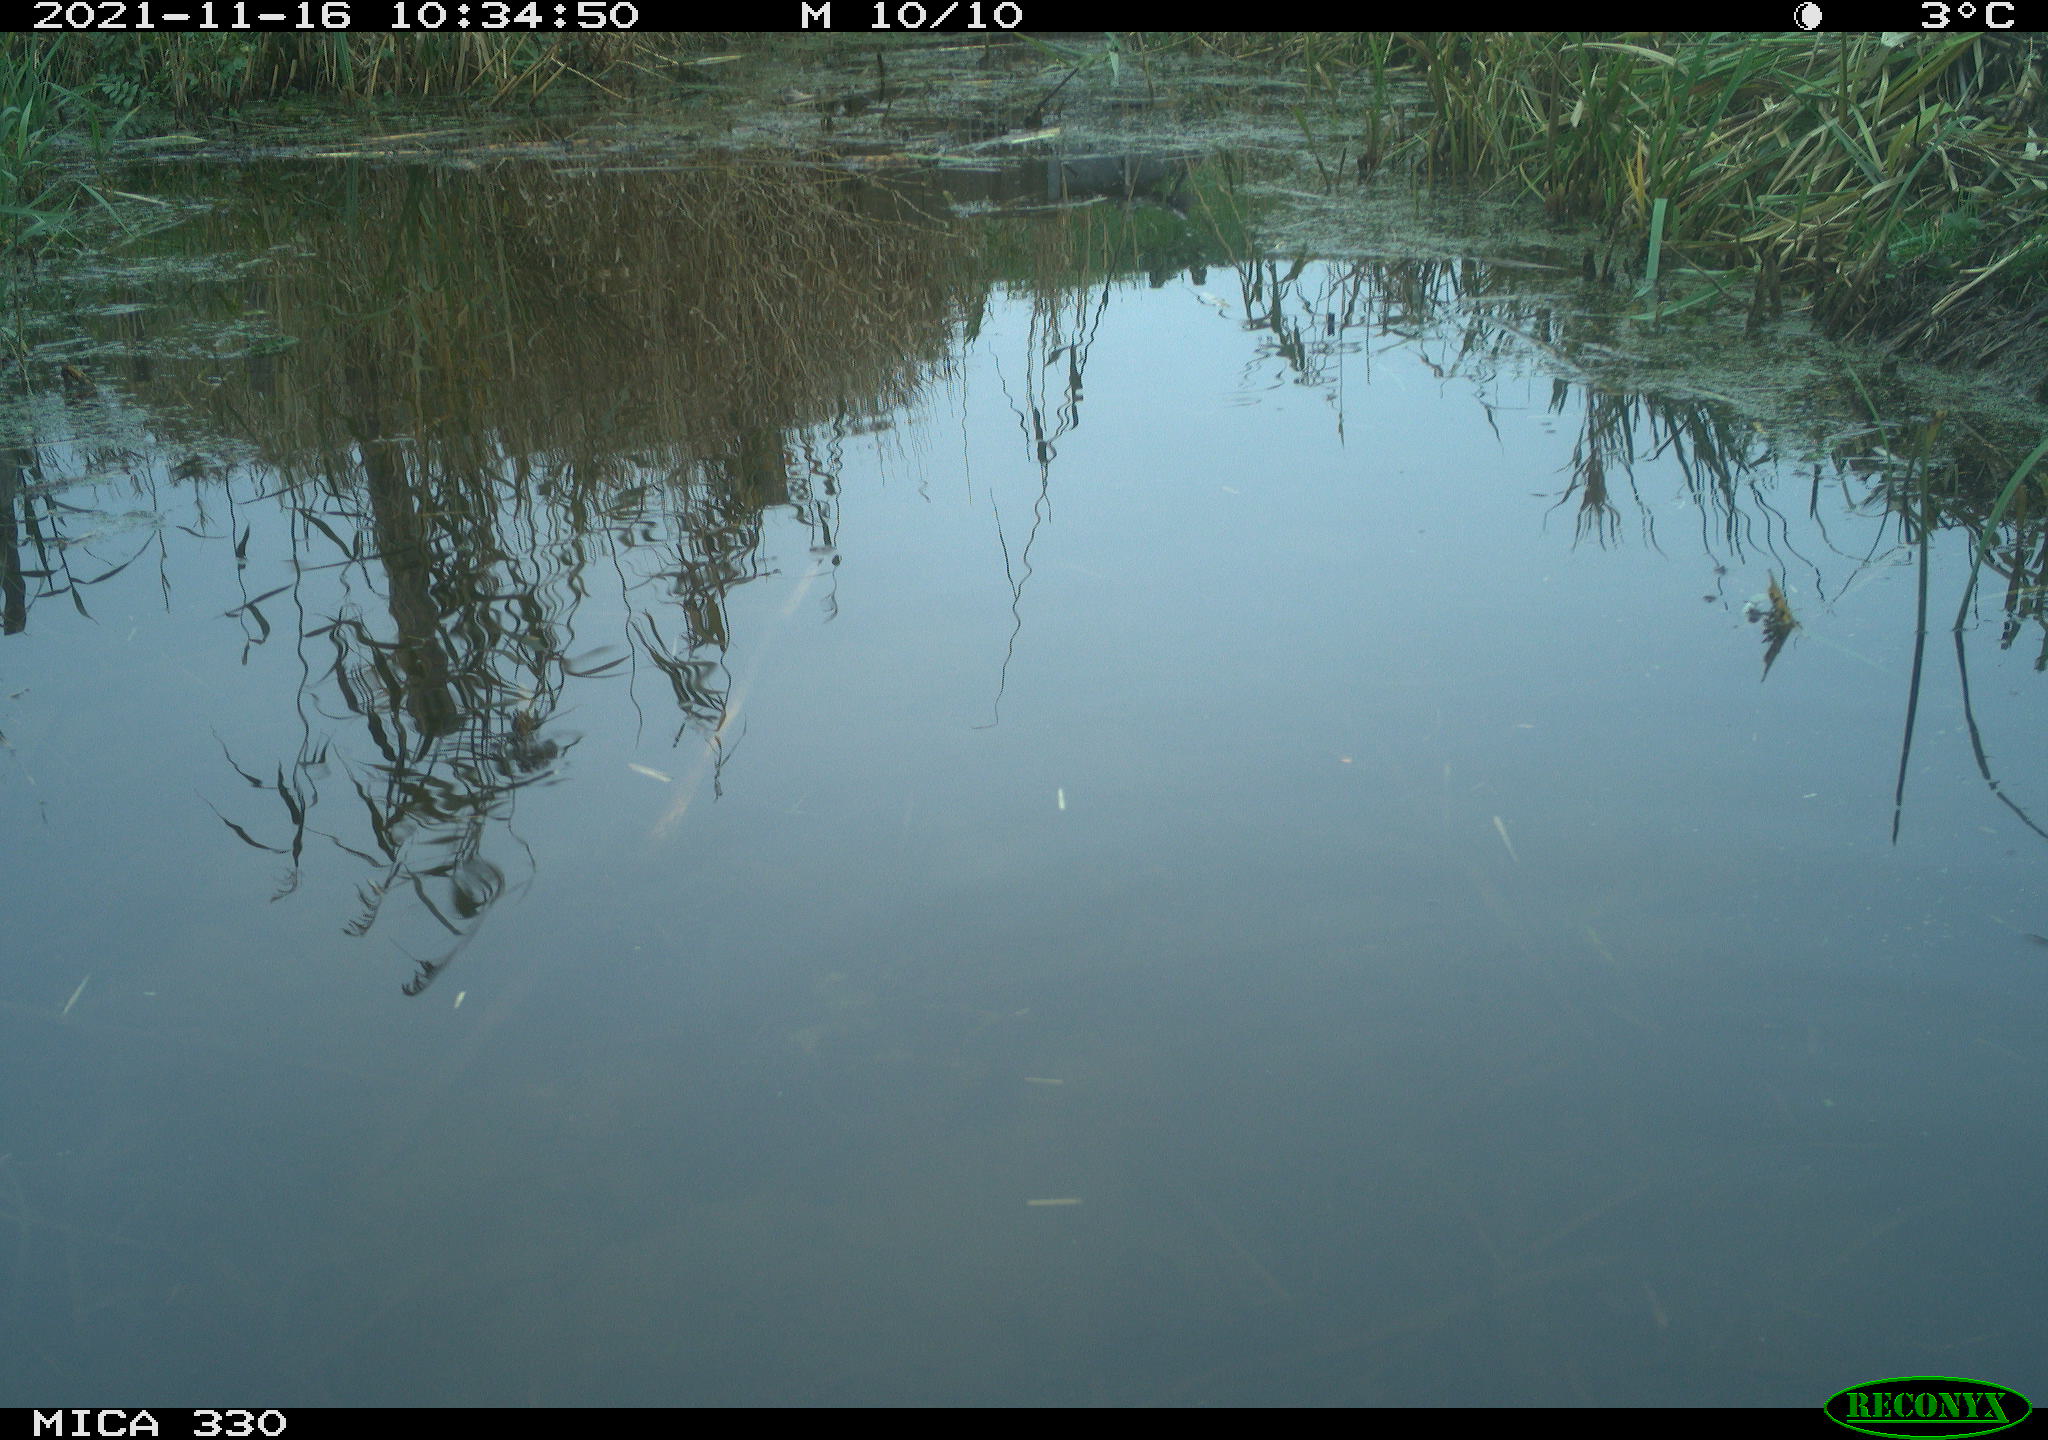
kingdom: Animalia
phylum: Chordata
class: Aves
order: Gruiformes
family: Rallidae
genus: Gallinula
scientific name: Gallinula chloropus
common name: Common moorhen
